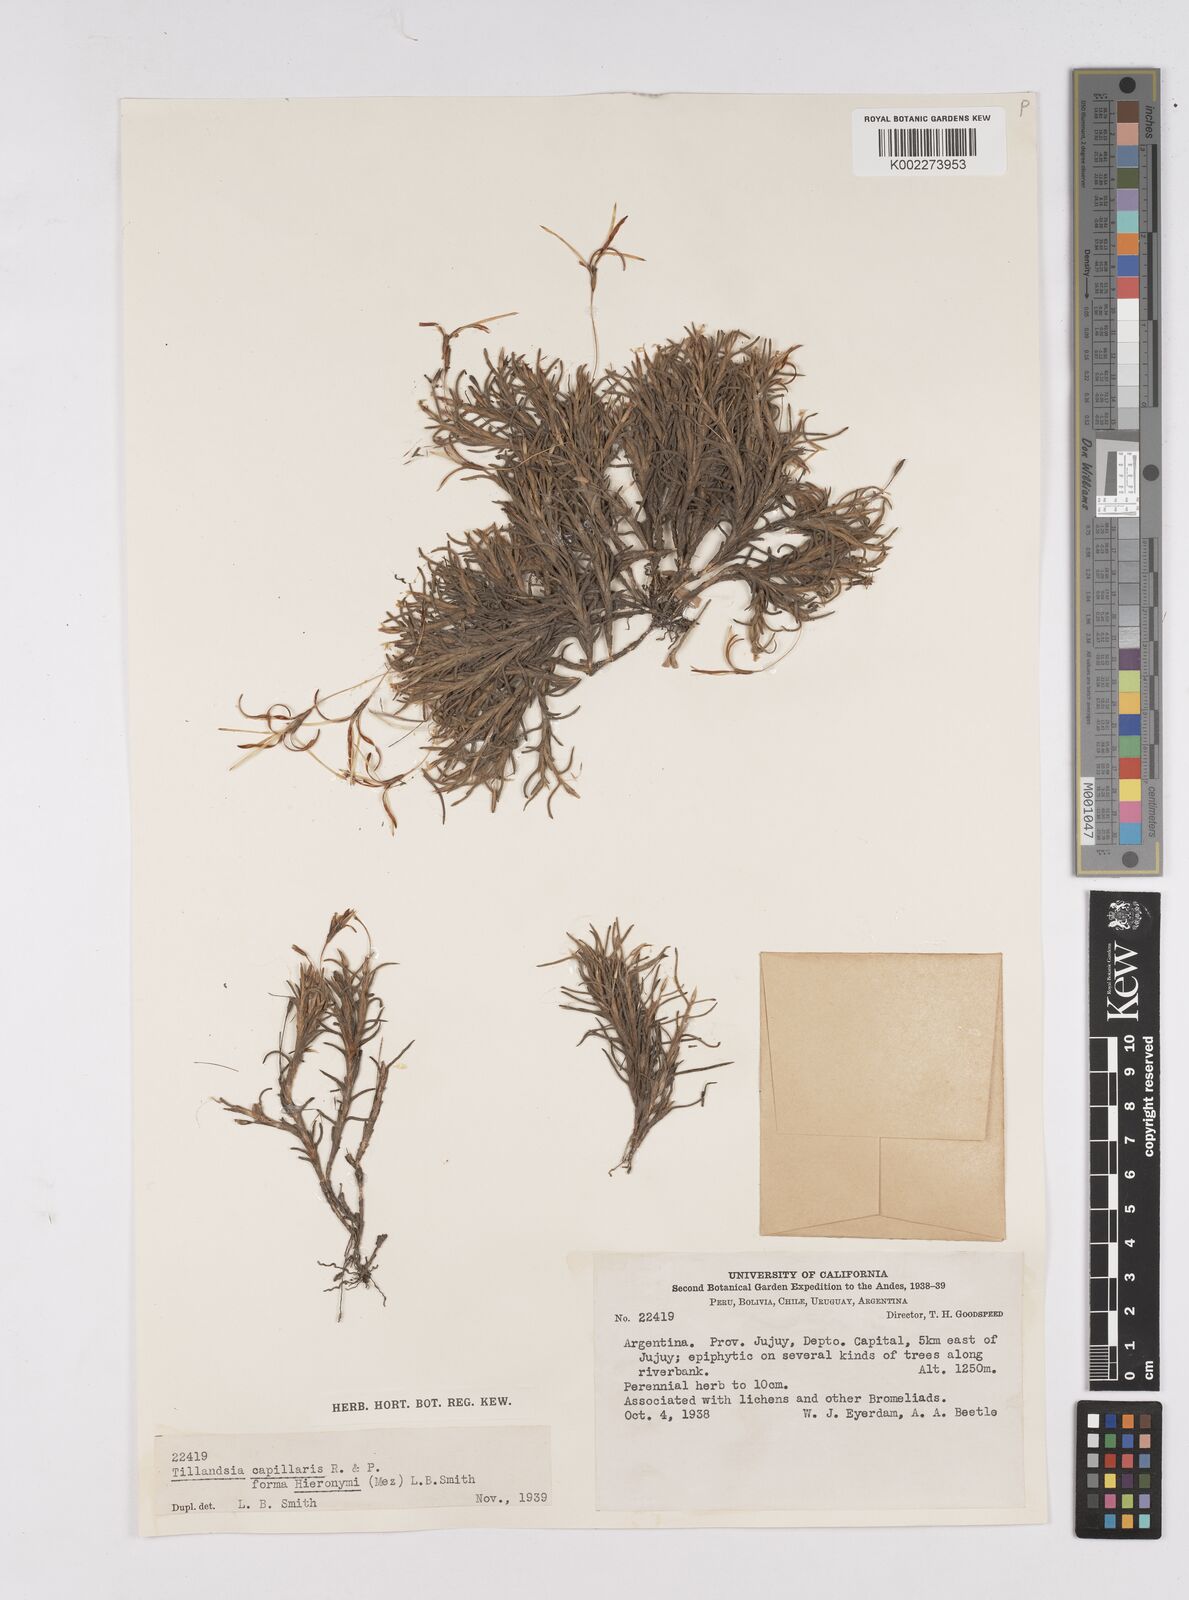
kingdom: Plantae
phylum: Tracheophyta
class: Liliopsida
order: Poales
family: Bromeliaceae
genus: Tillandsia
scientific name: Tillandsia capillaris
